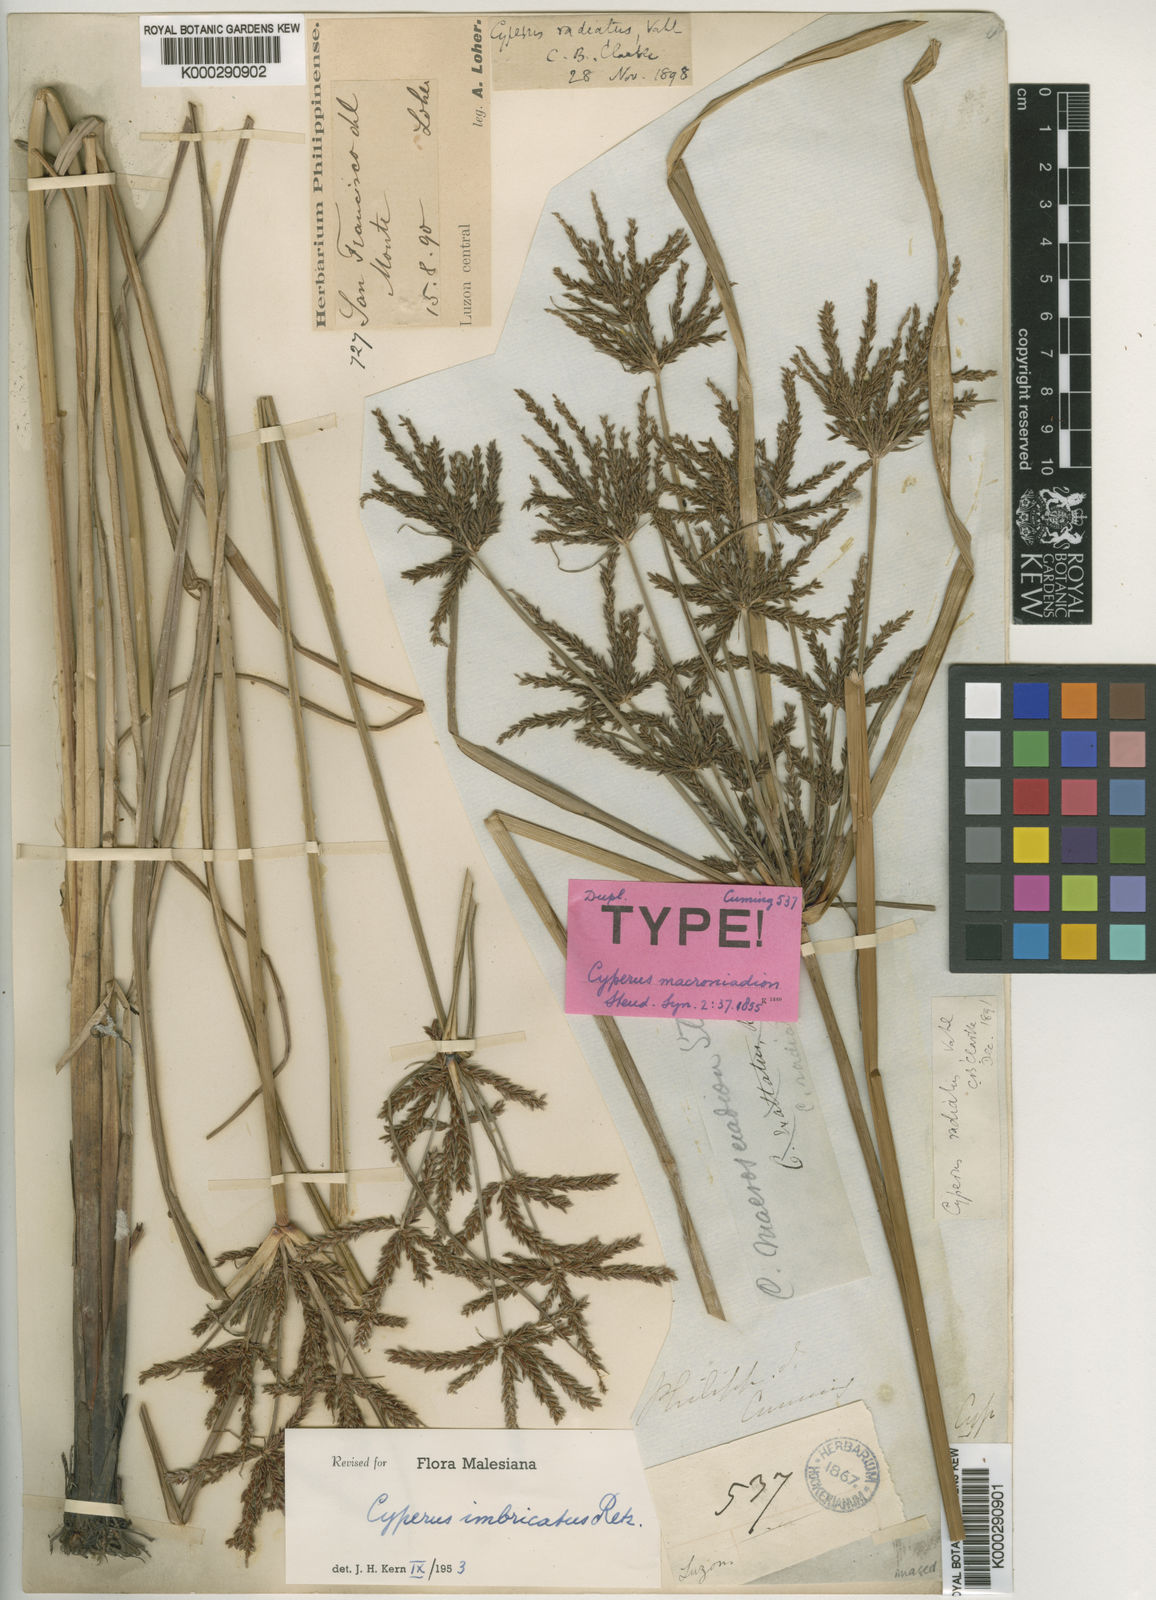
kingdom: Plantae
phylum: Tracheophyta
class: Liliopsida
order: Poales
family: Cyperaceae
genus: Cyperus
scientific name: Cyperus imbricatus
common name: Shingle flatsedge
